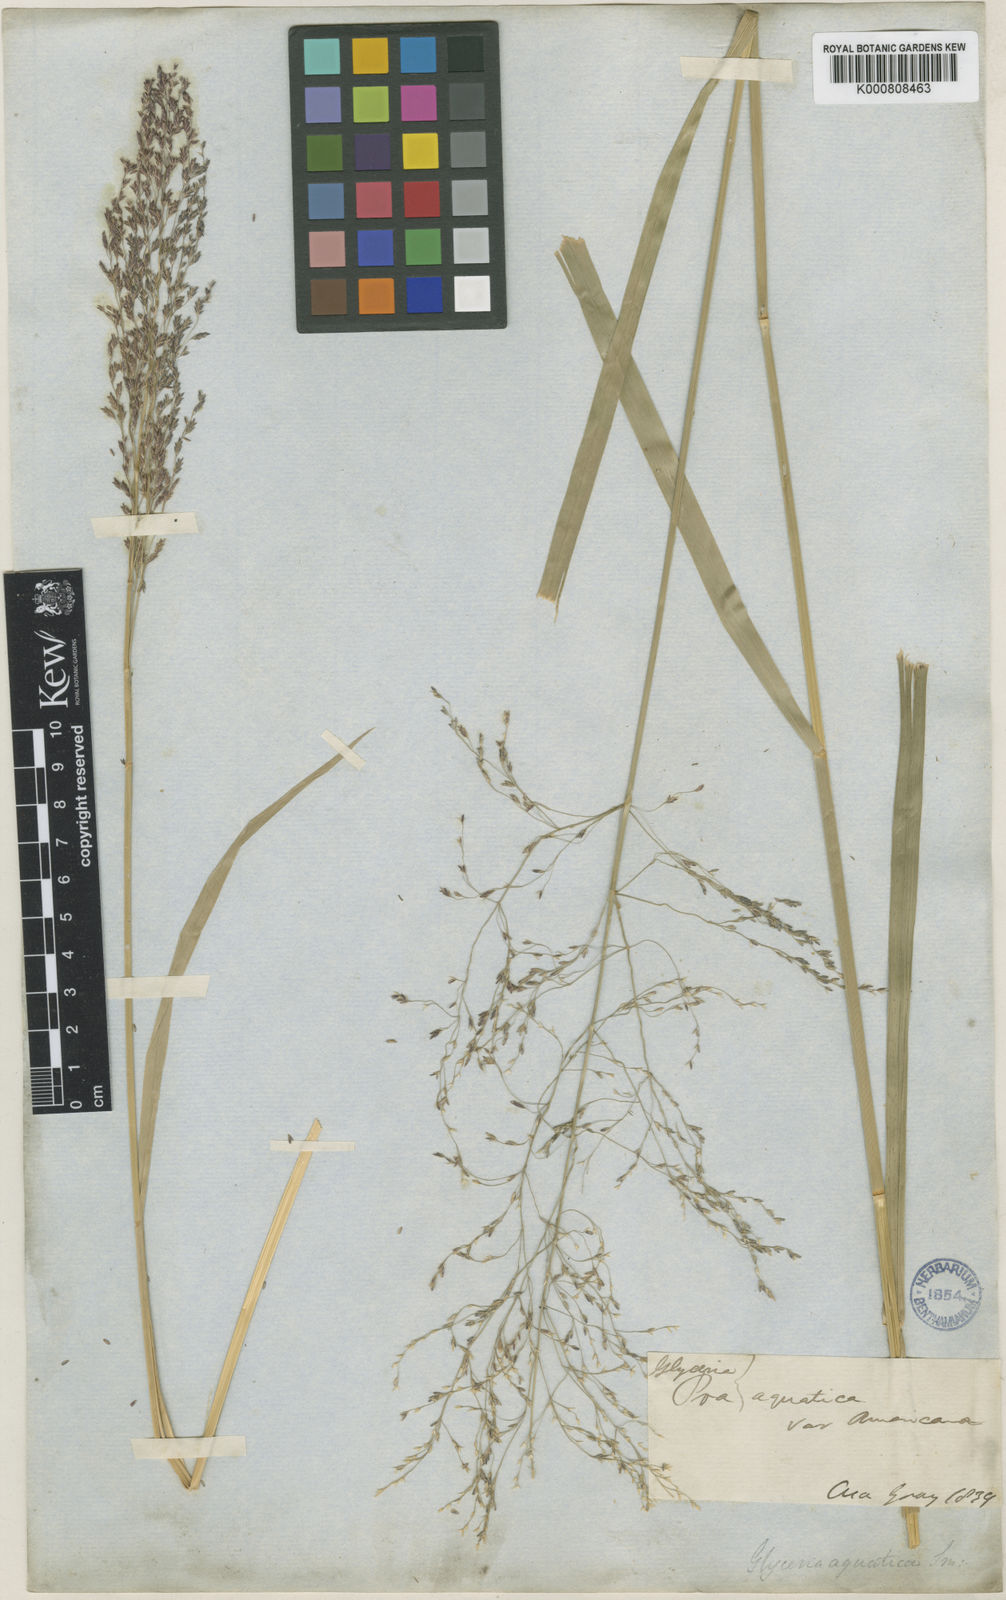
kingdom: Plantae
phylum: Tracheophyta
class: Liliopsida
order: Poales
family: Poaceae
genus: Glyceria
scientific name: Glyceria grandis
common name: American glyceria
